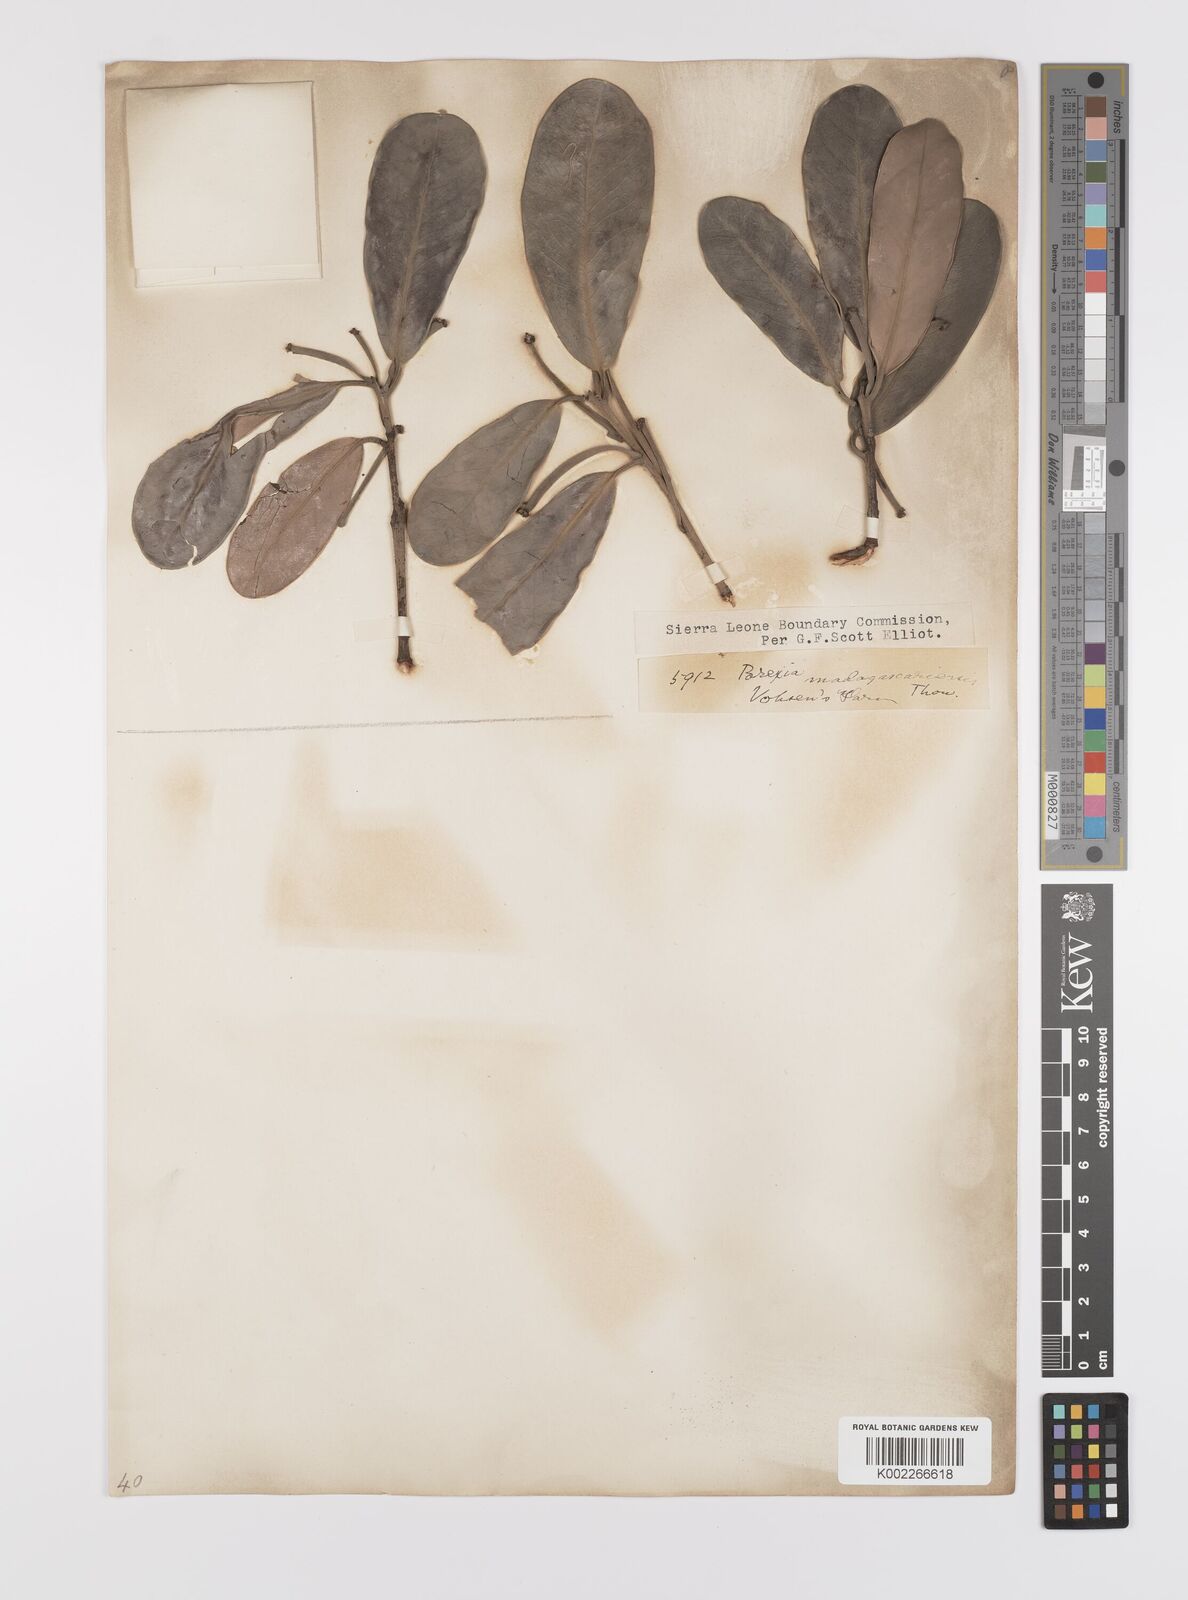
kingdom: Plantae
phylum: Tracheophyta
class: Magnoliopsida
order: Celastrales
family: Celastraceae
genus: Brexia
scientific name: Brexia madagascariensis
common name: Brexia
